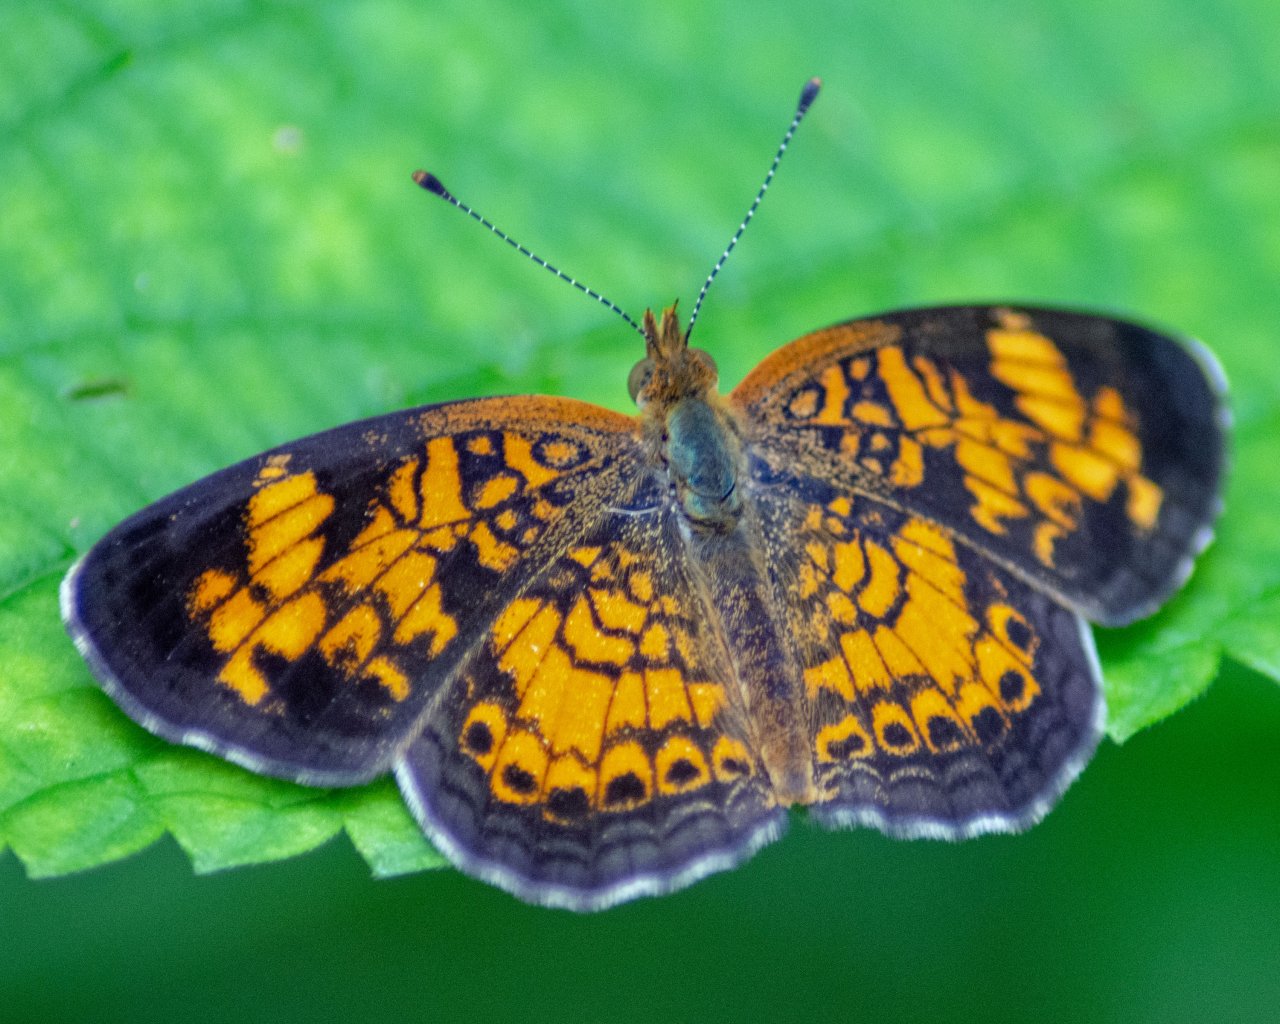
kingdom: Animalia
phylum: Arthropoda
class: Insecta
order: Lepidoptera
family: Nymphalidae
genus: Phyciodes
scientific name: Phyciodes tharos
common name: Pearl Crescent
